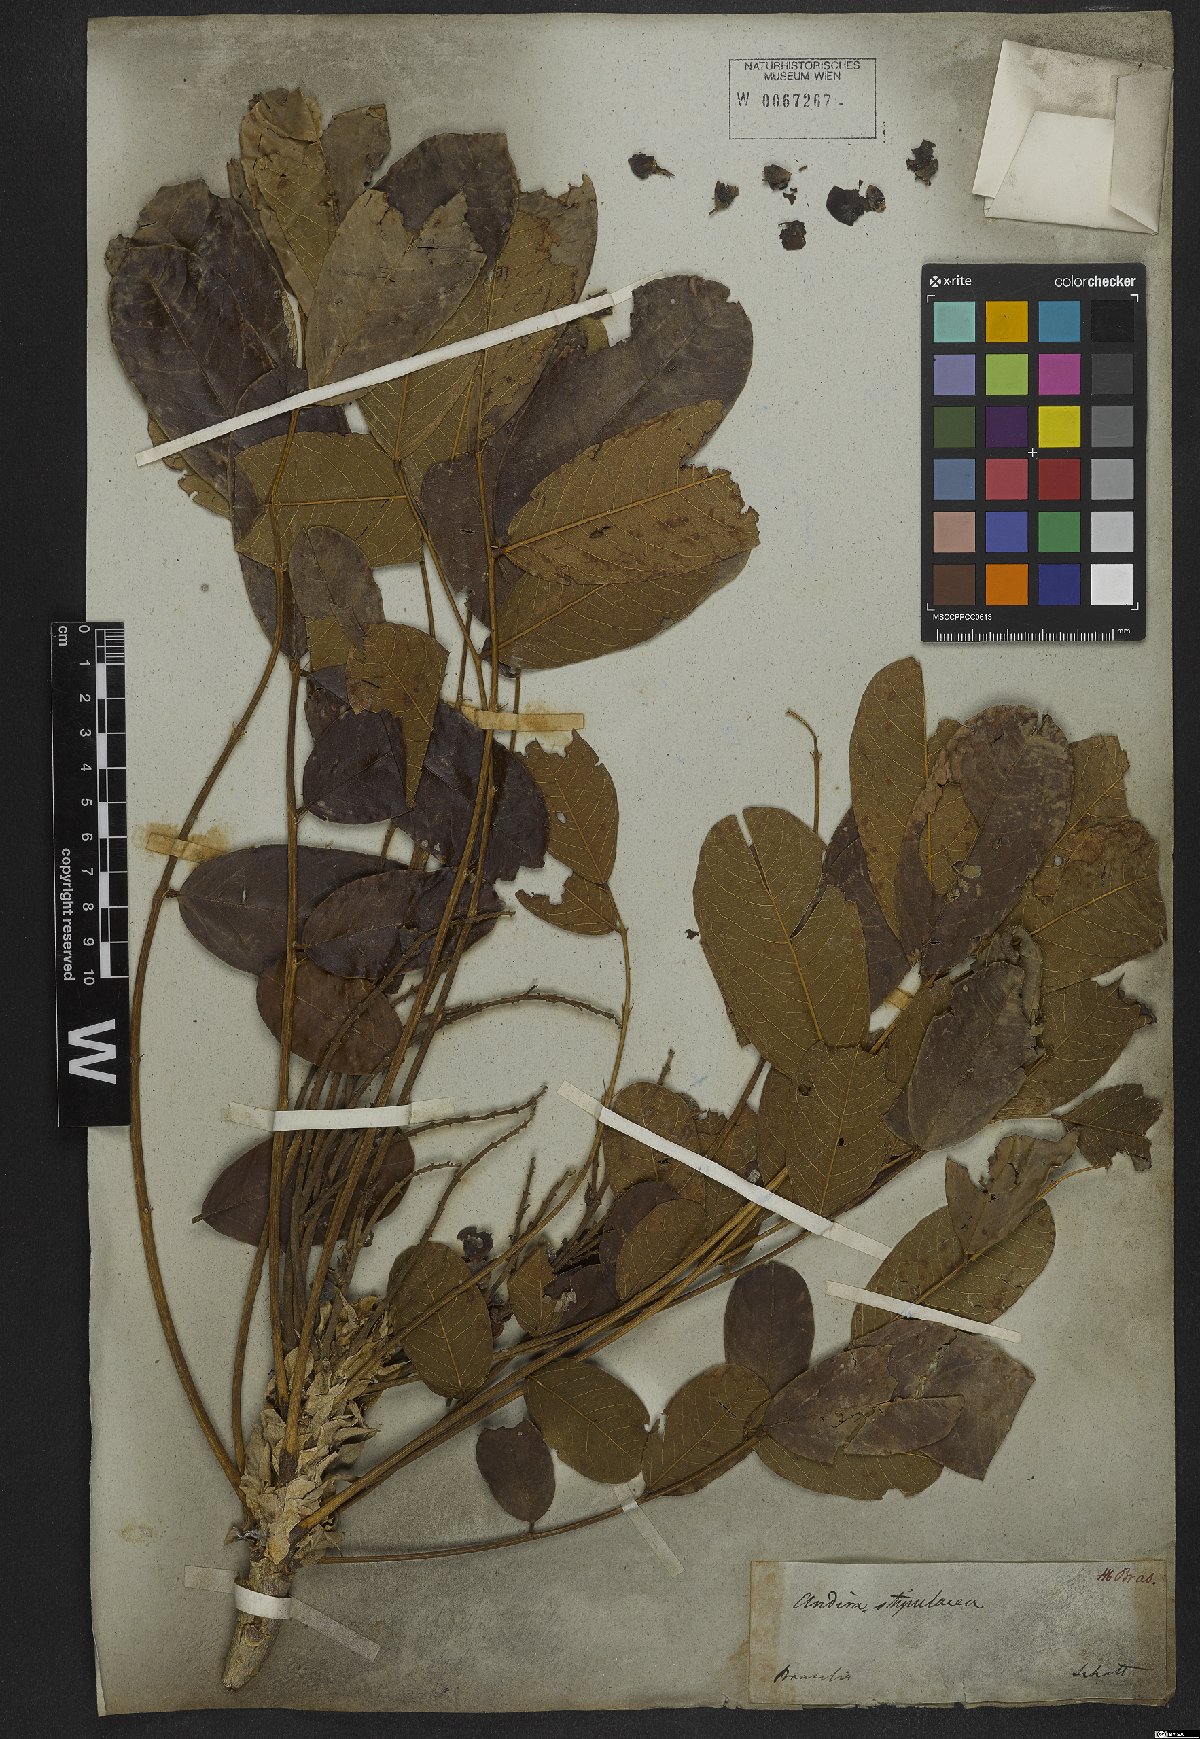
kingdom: Plantae
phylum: Tracheophyta
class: Magnoliopsida
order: Fabales
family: Fabaceae
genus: Andira
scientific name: Andira legalis
